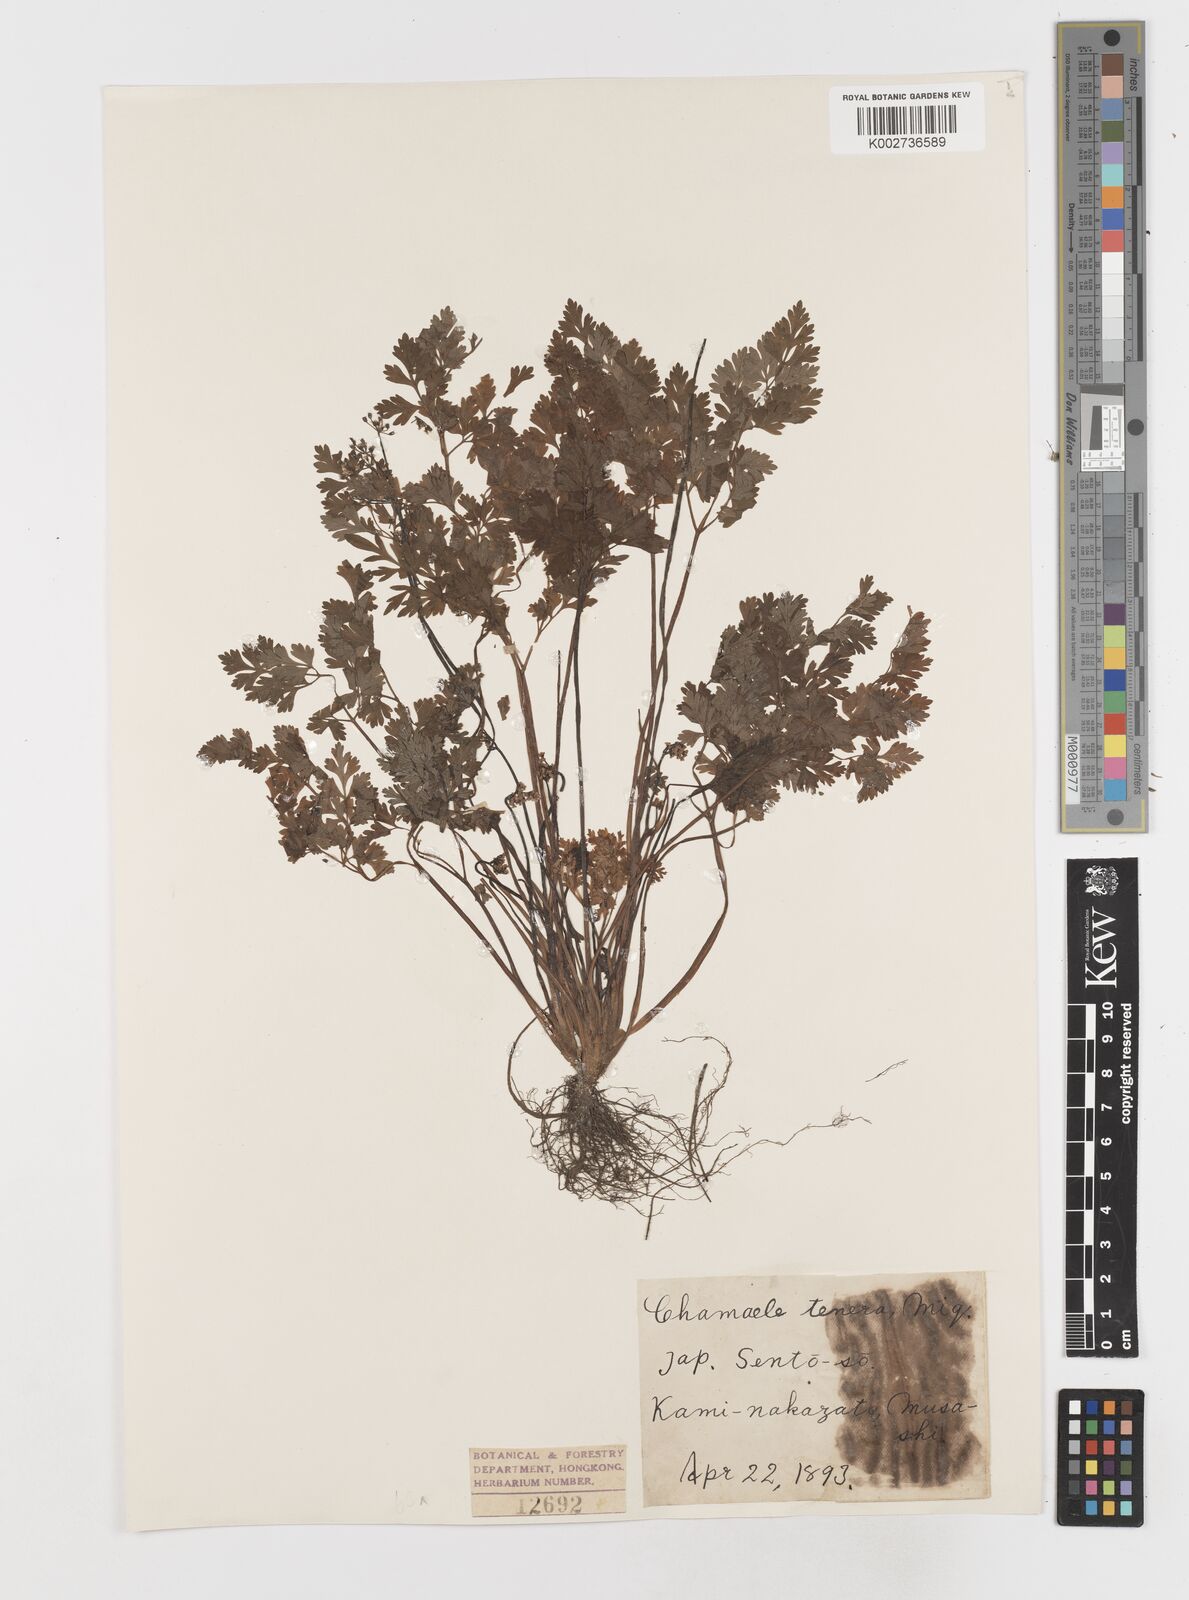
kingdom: Plantae
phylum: Tracheophyta
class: Magnoliopsida
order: Apiales
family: Apiaceae
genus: Aegopodium
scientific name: Aegopodium decumbens
